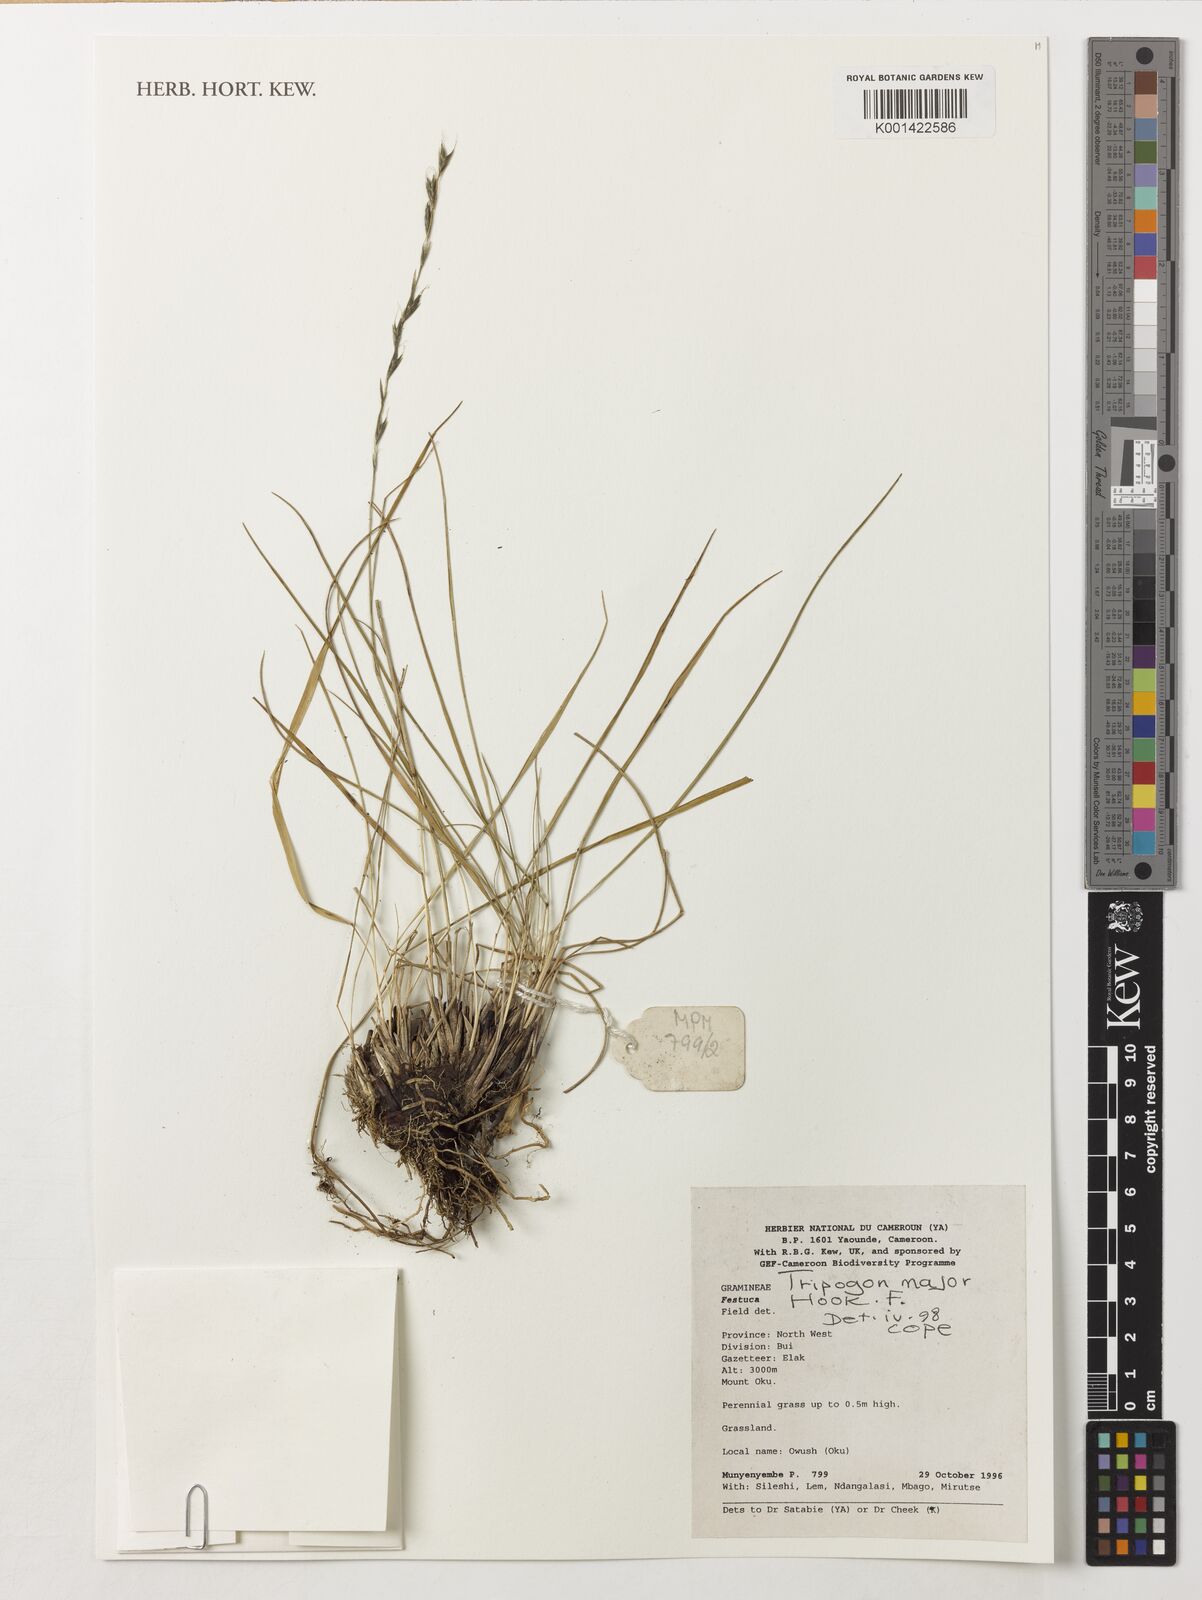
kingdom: Plantae
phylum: Tracheophyta
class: Liliopsida
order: Poales
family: Poaceae
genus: Tripogon
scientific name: Tripogon major
